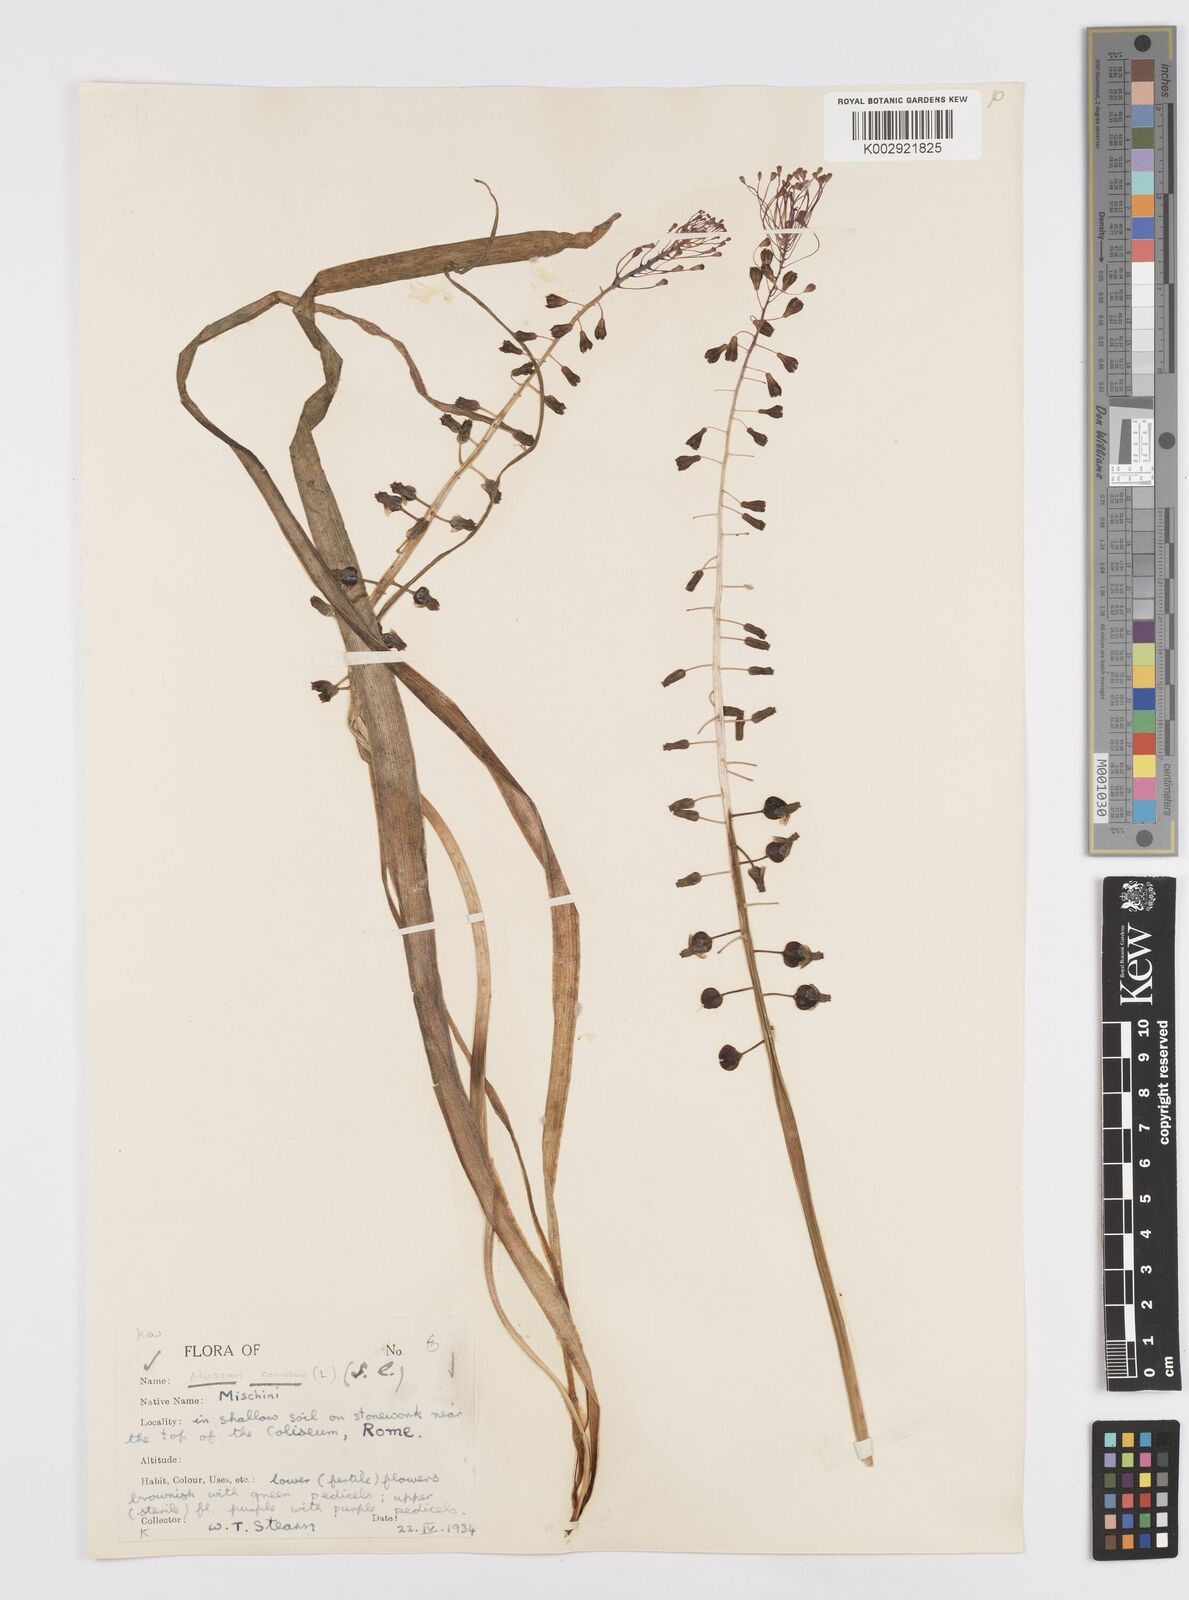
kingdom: Plantae
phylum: Tracheophyta
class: Liliopsida
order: Asparagales
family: Asparagaceae
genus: Muscari
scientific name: Muscari comosum
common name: Tassel hyacinth
